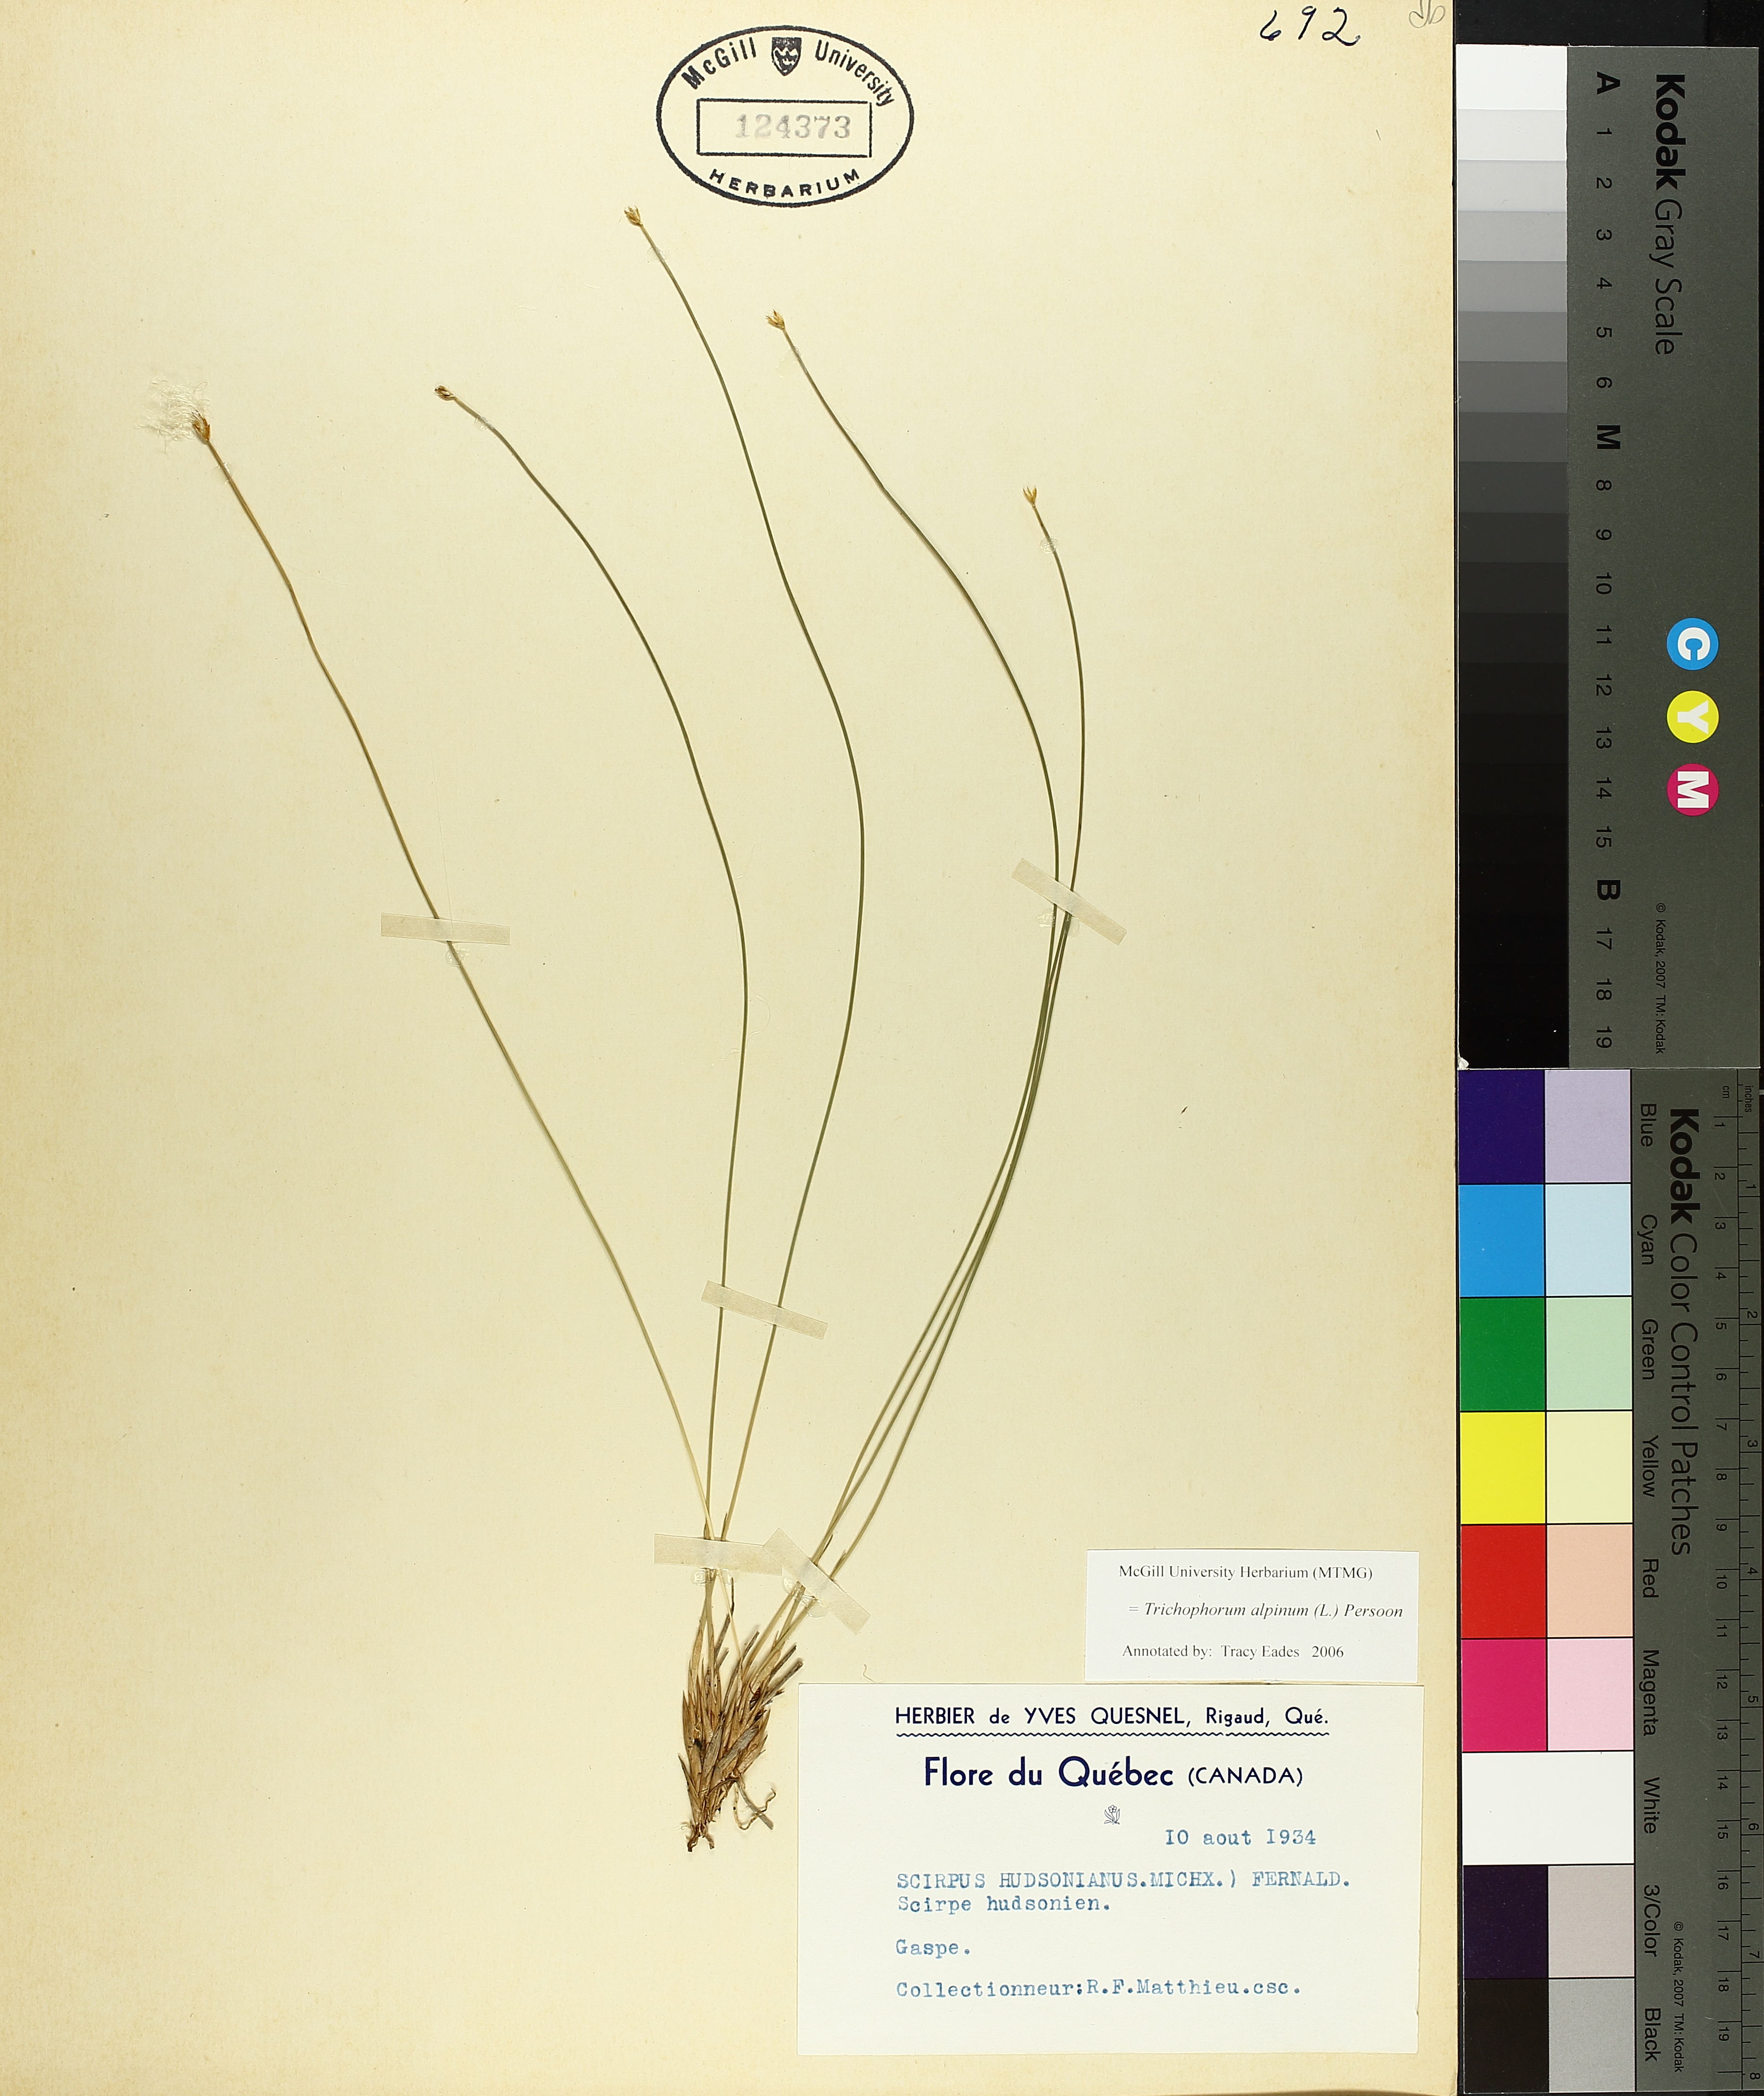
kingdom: Plantae
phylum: Tracheophyta
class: Liliopsida
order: Poales
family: Cyperaceae
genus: Trichophorum
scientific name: Trichophorum alpinum
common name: Alpine bulrush
